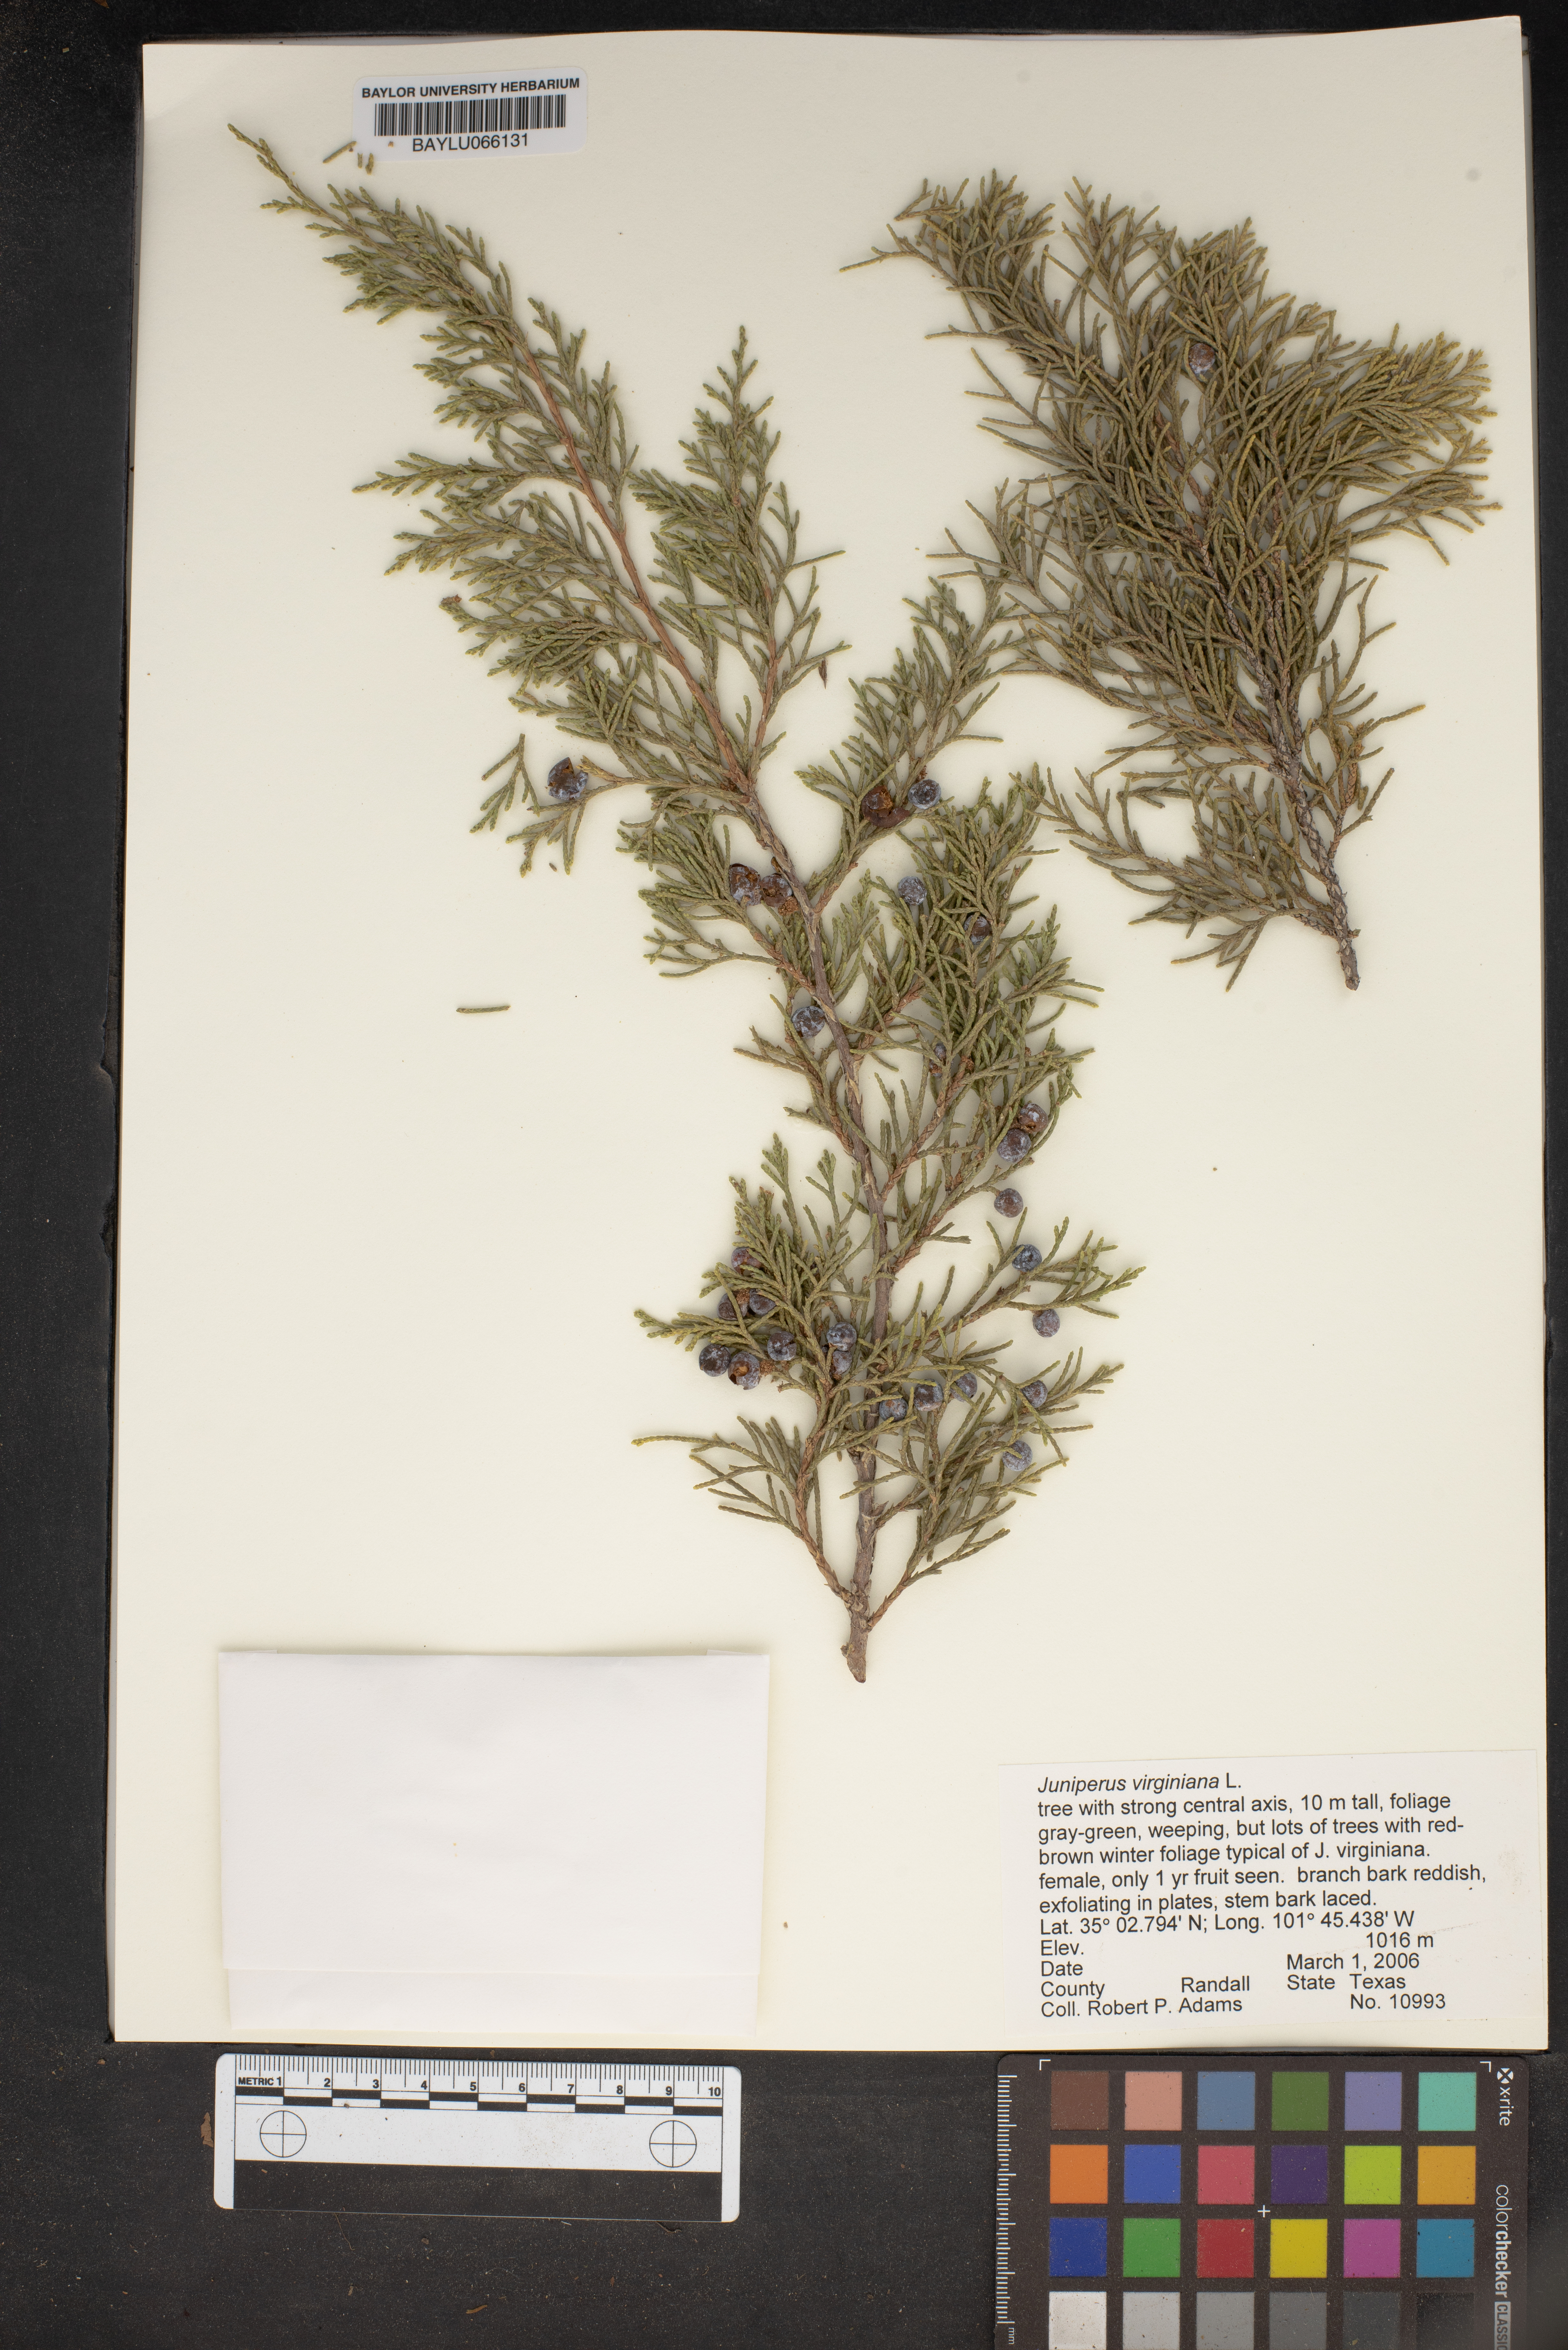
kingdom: Plantae
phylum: Tracheophyta
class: Pinopsida
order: Pinales
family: Cupressaceae
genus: Juniperus
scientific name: Juniperus virginiana
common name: Red juniper
